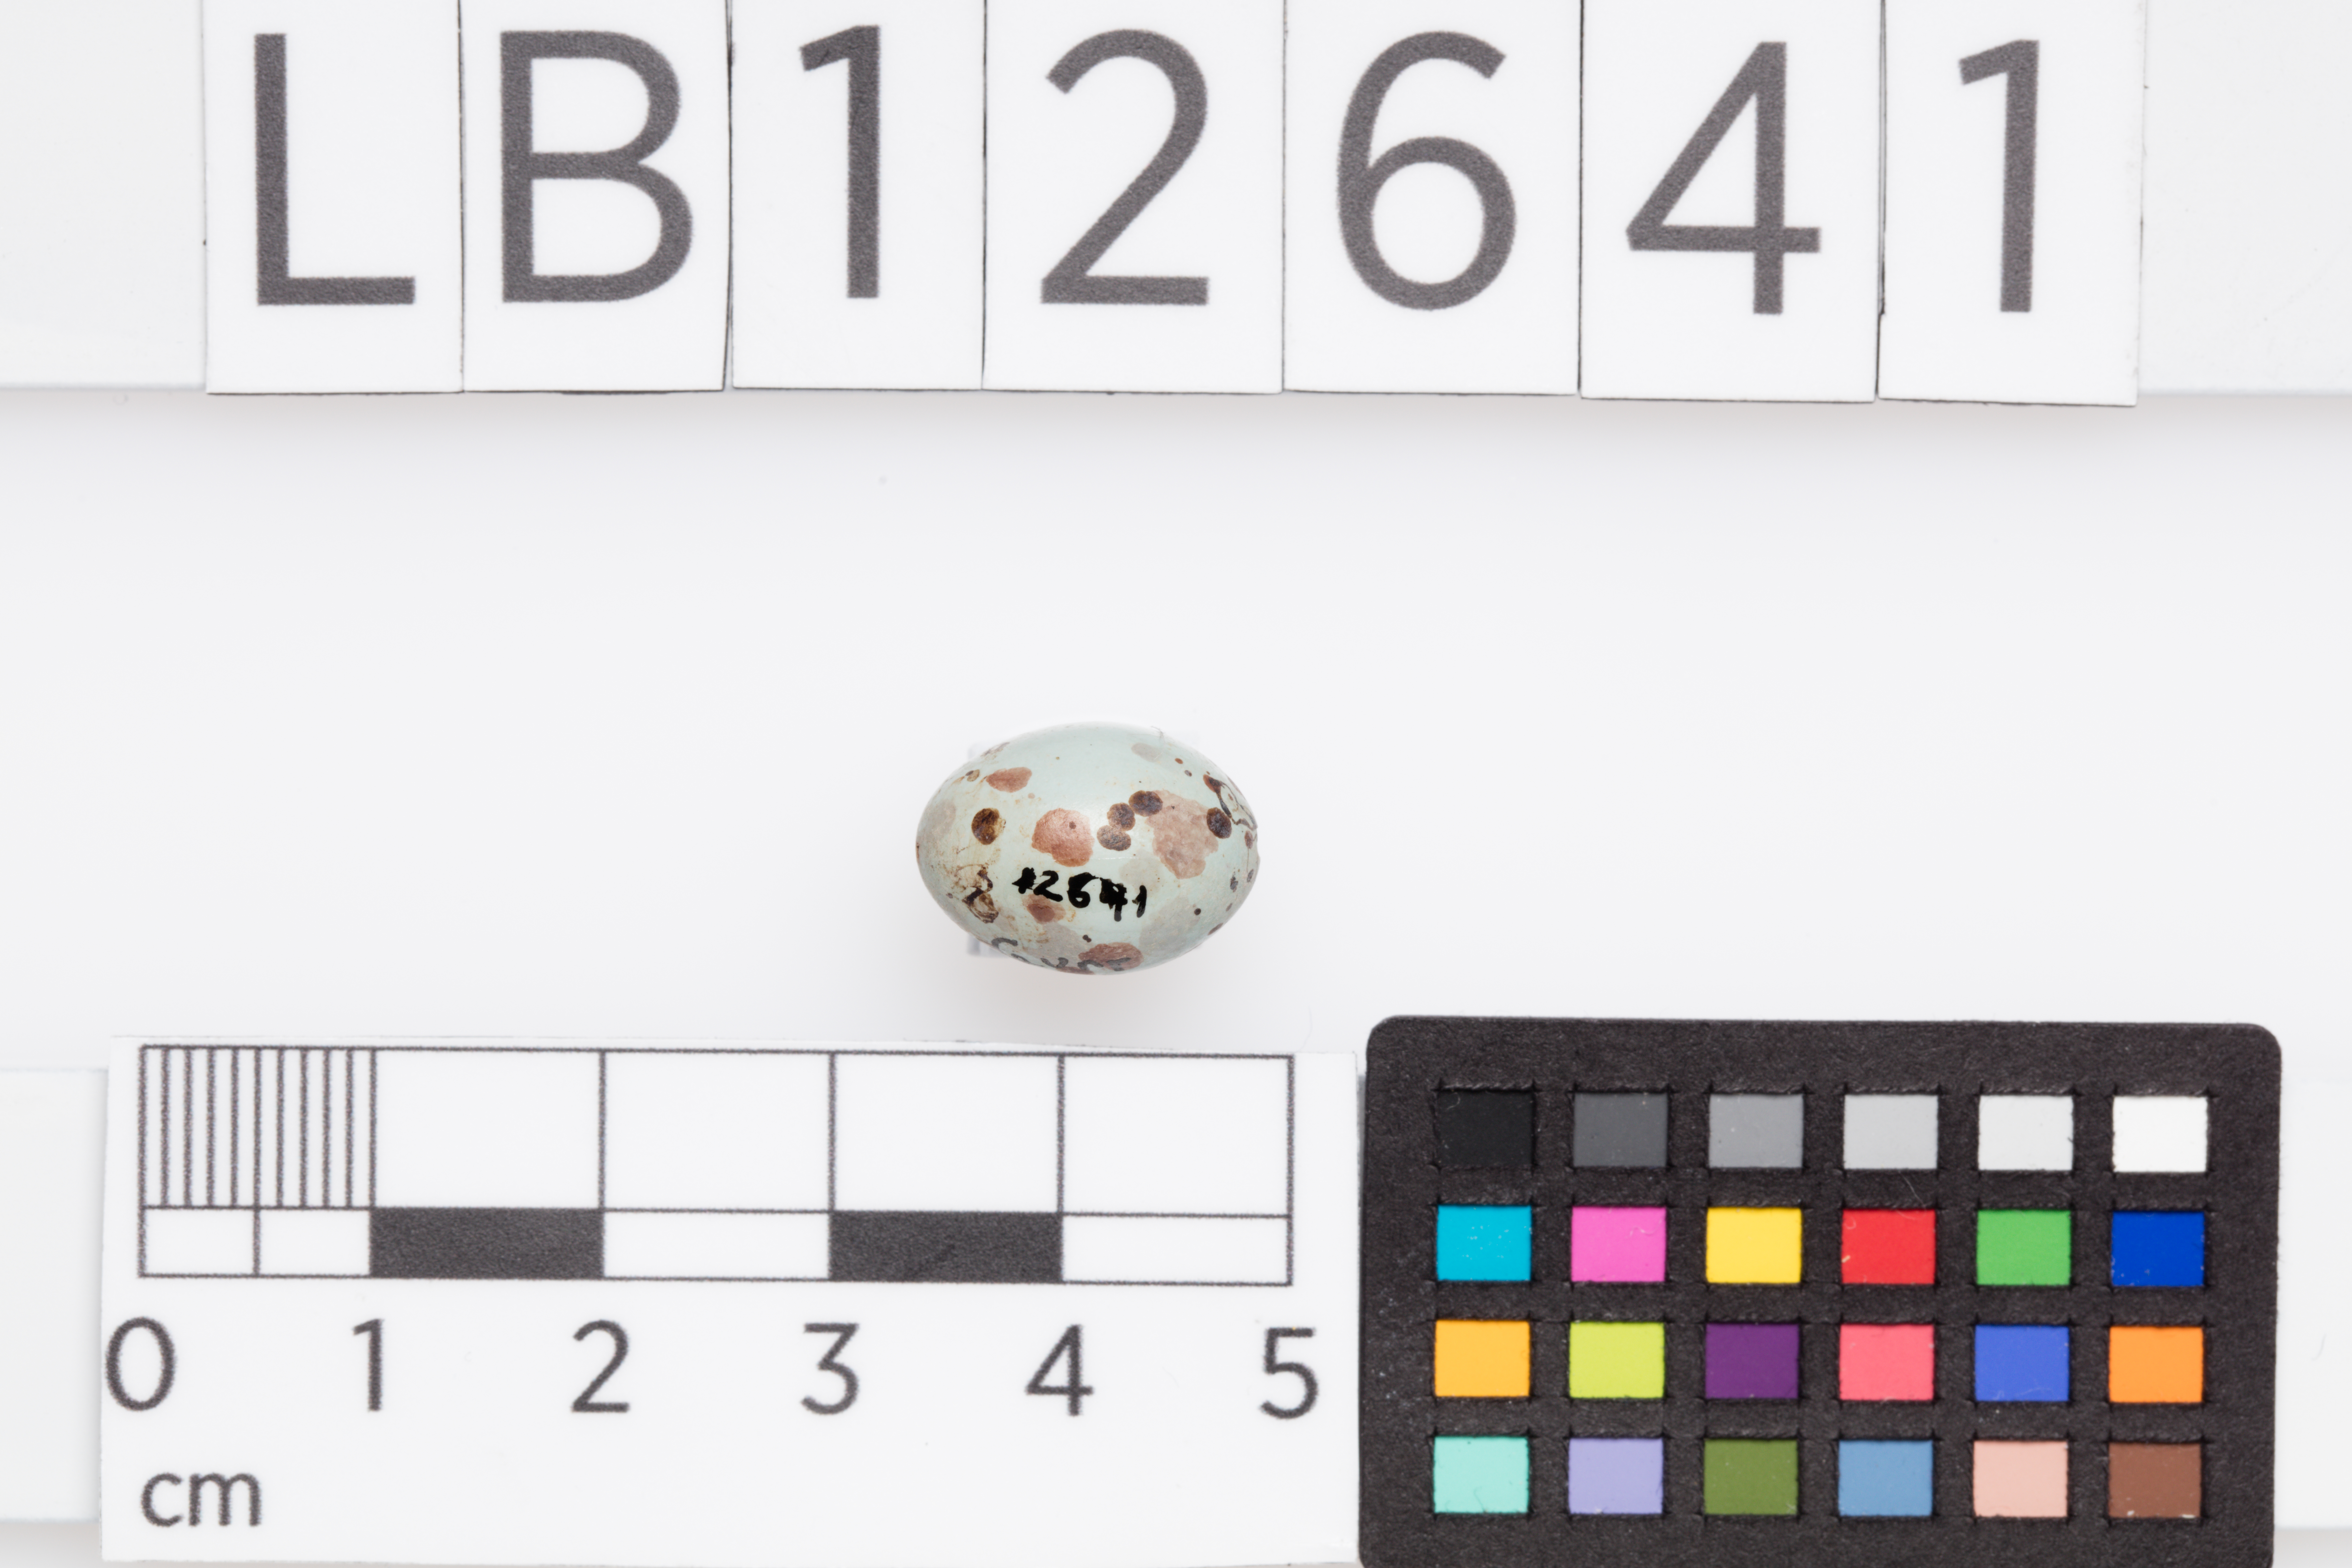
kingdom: Animalia
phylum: Chordata
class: Aves
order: Passeriformes
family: Cisticolidae
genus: Cisticola
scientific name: Cisticola exilis
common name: Golden-headed cisticola
